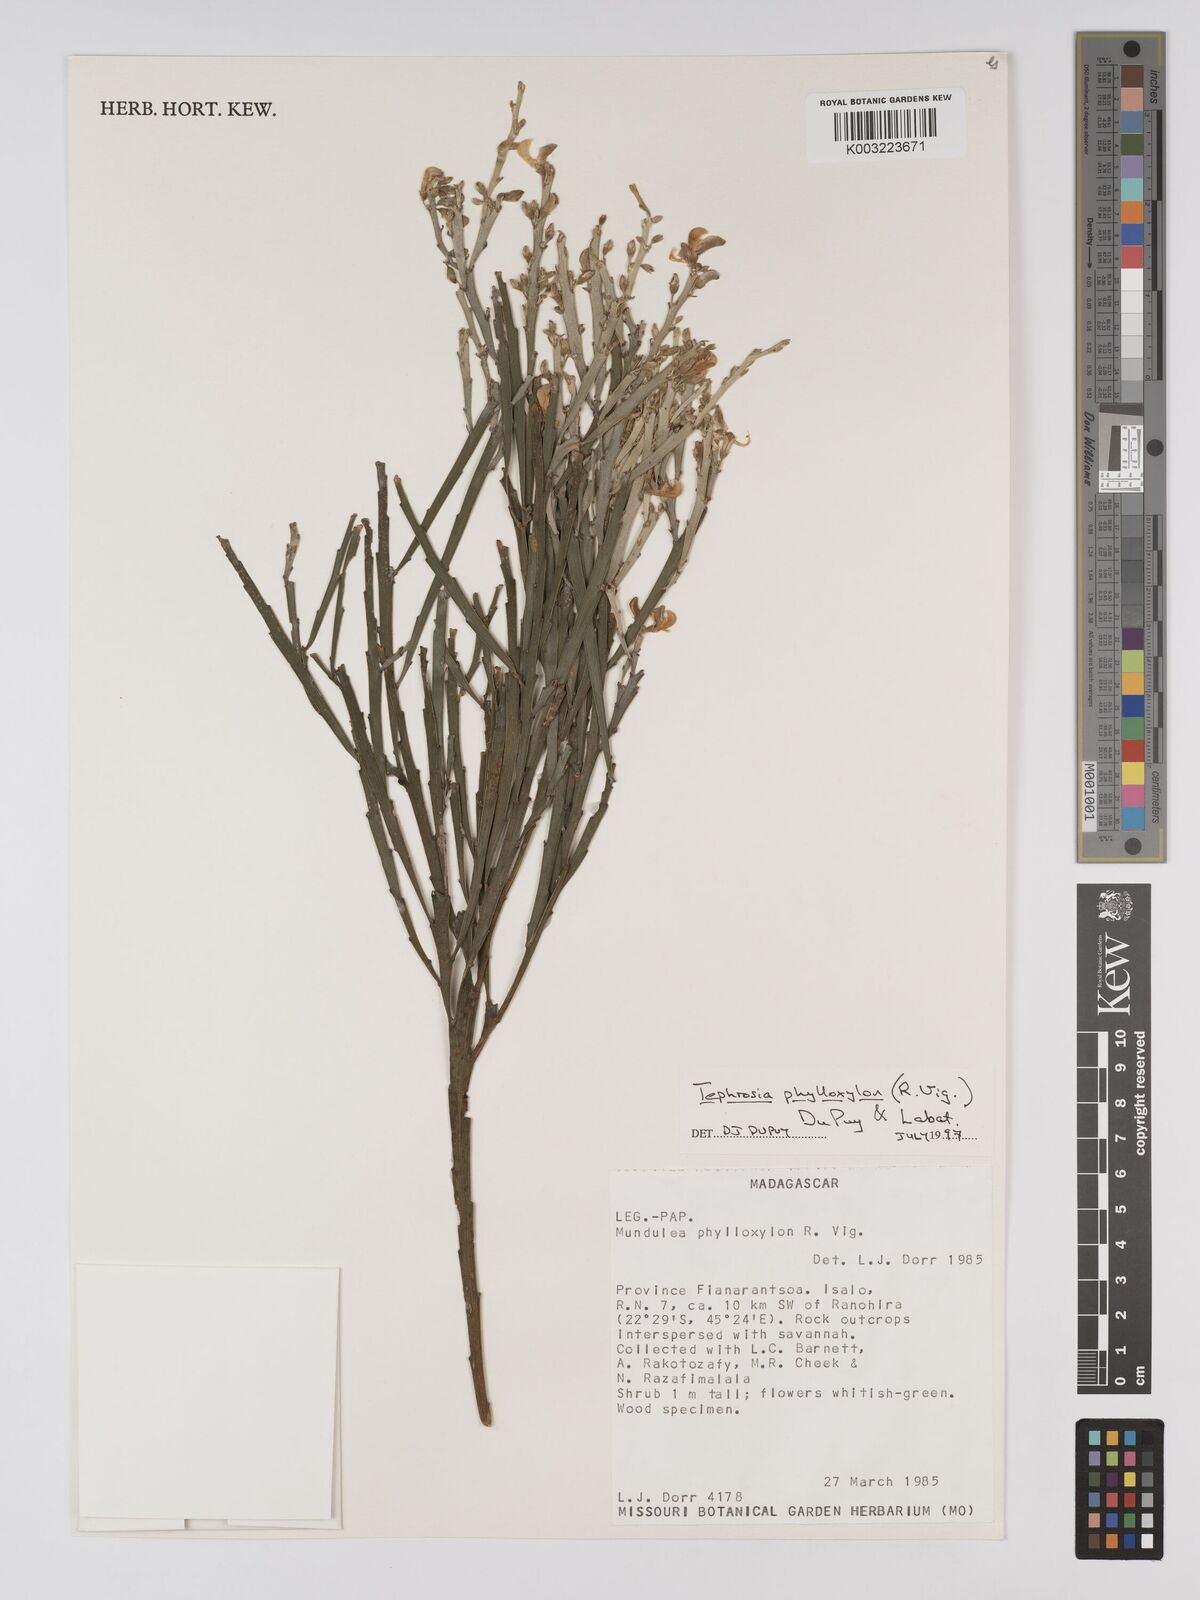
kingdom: Plantae
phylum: Tracheophyta
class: Magnoliopsida
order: Fabales
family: Fabaceae
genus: Tephrosia
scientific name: Tephrosia phylloxylon
